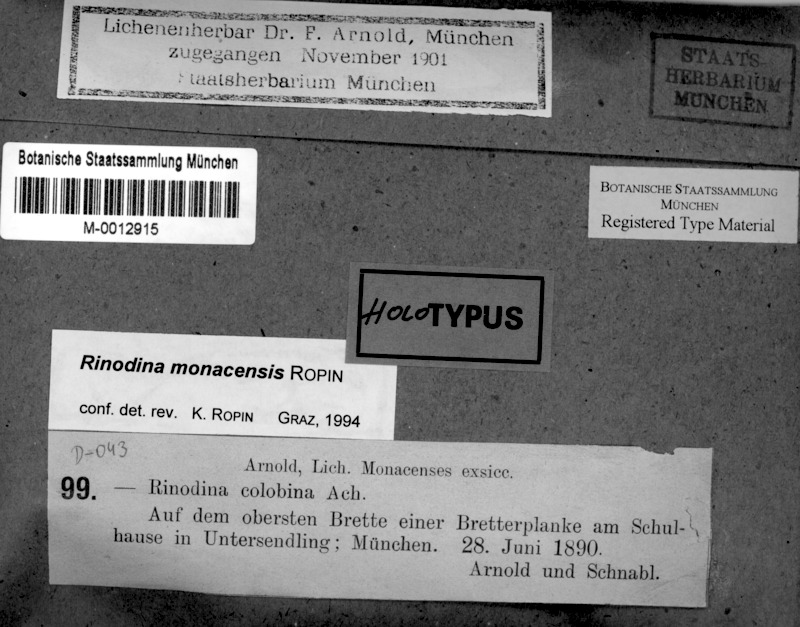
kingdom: Fungi
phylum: Ascomycota
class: Lecanoromycetes
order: Caliciales
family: Physciaceae
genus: Rinodina
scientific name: Rinodina
